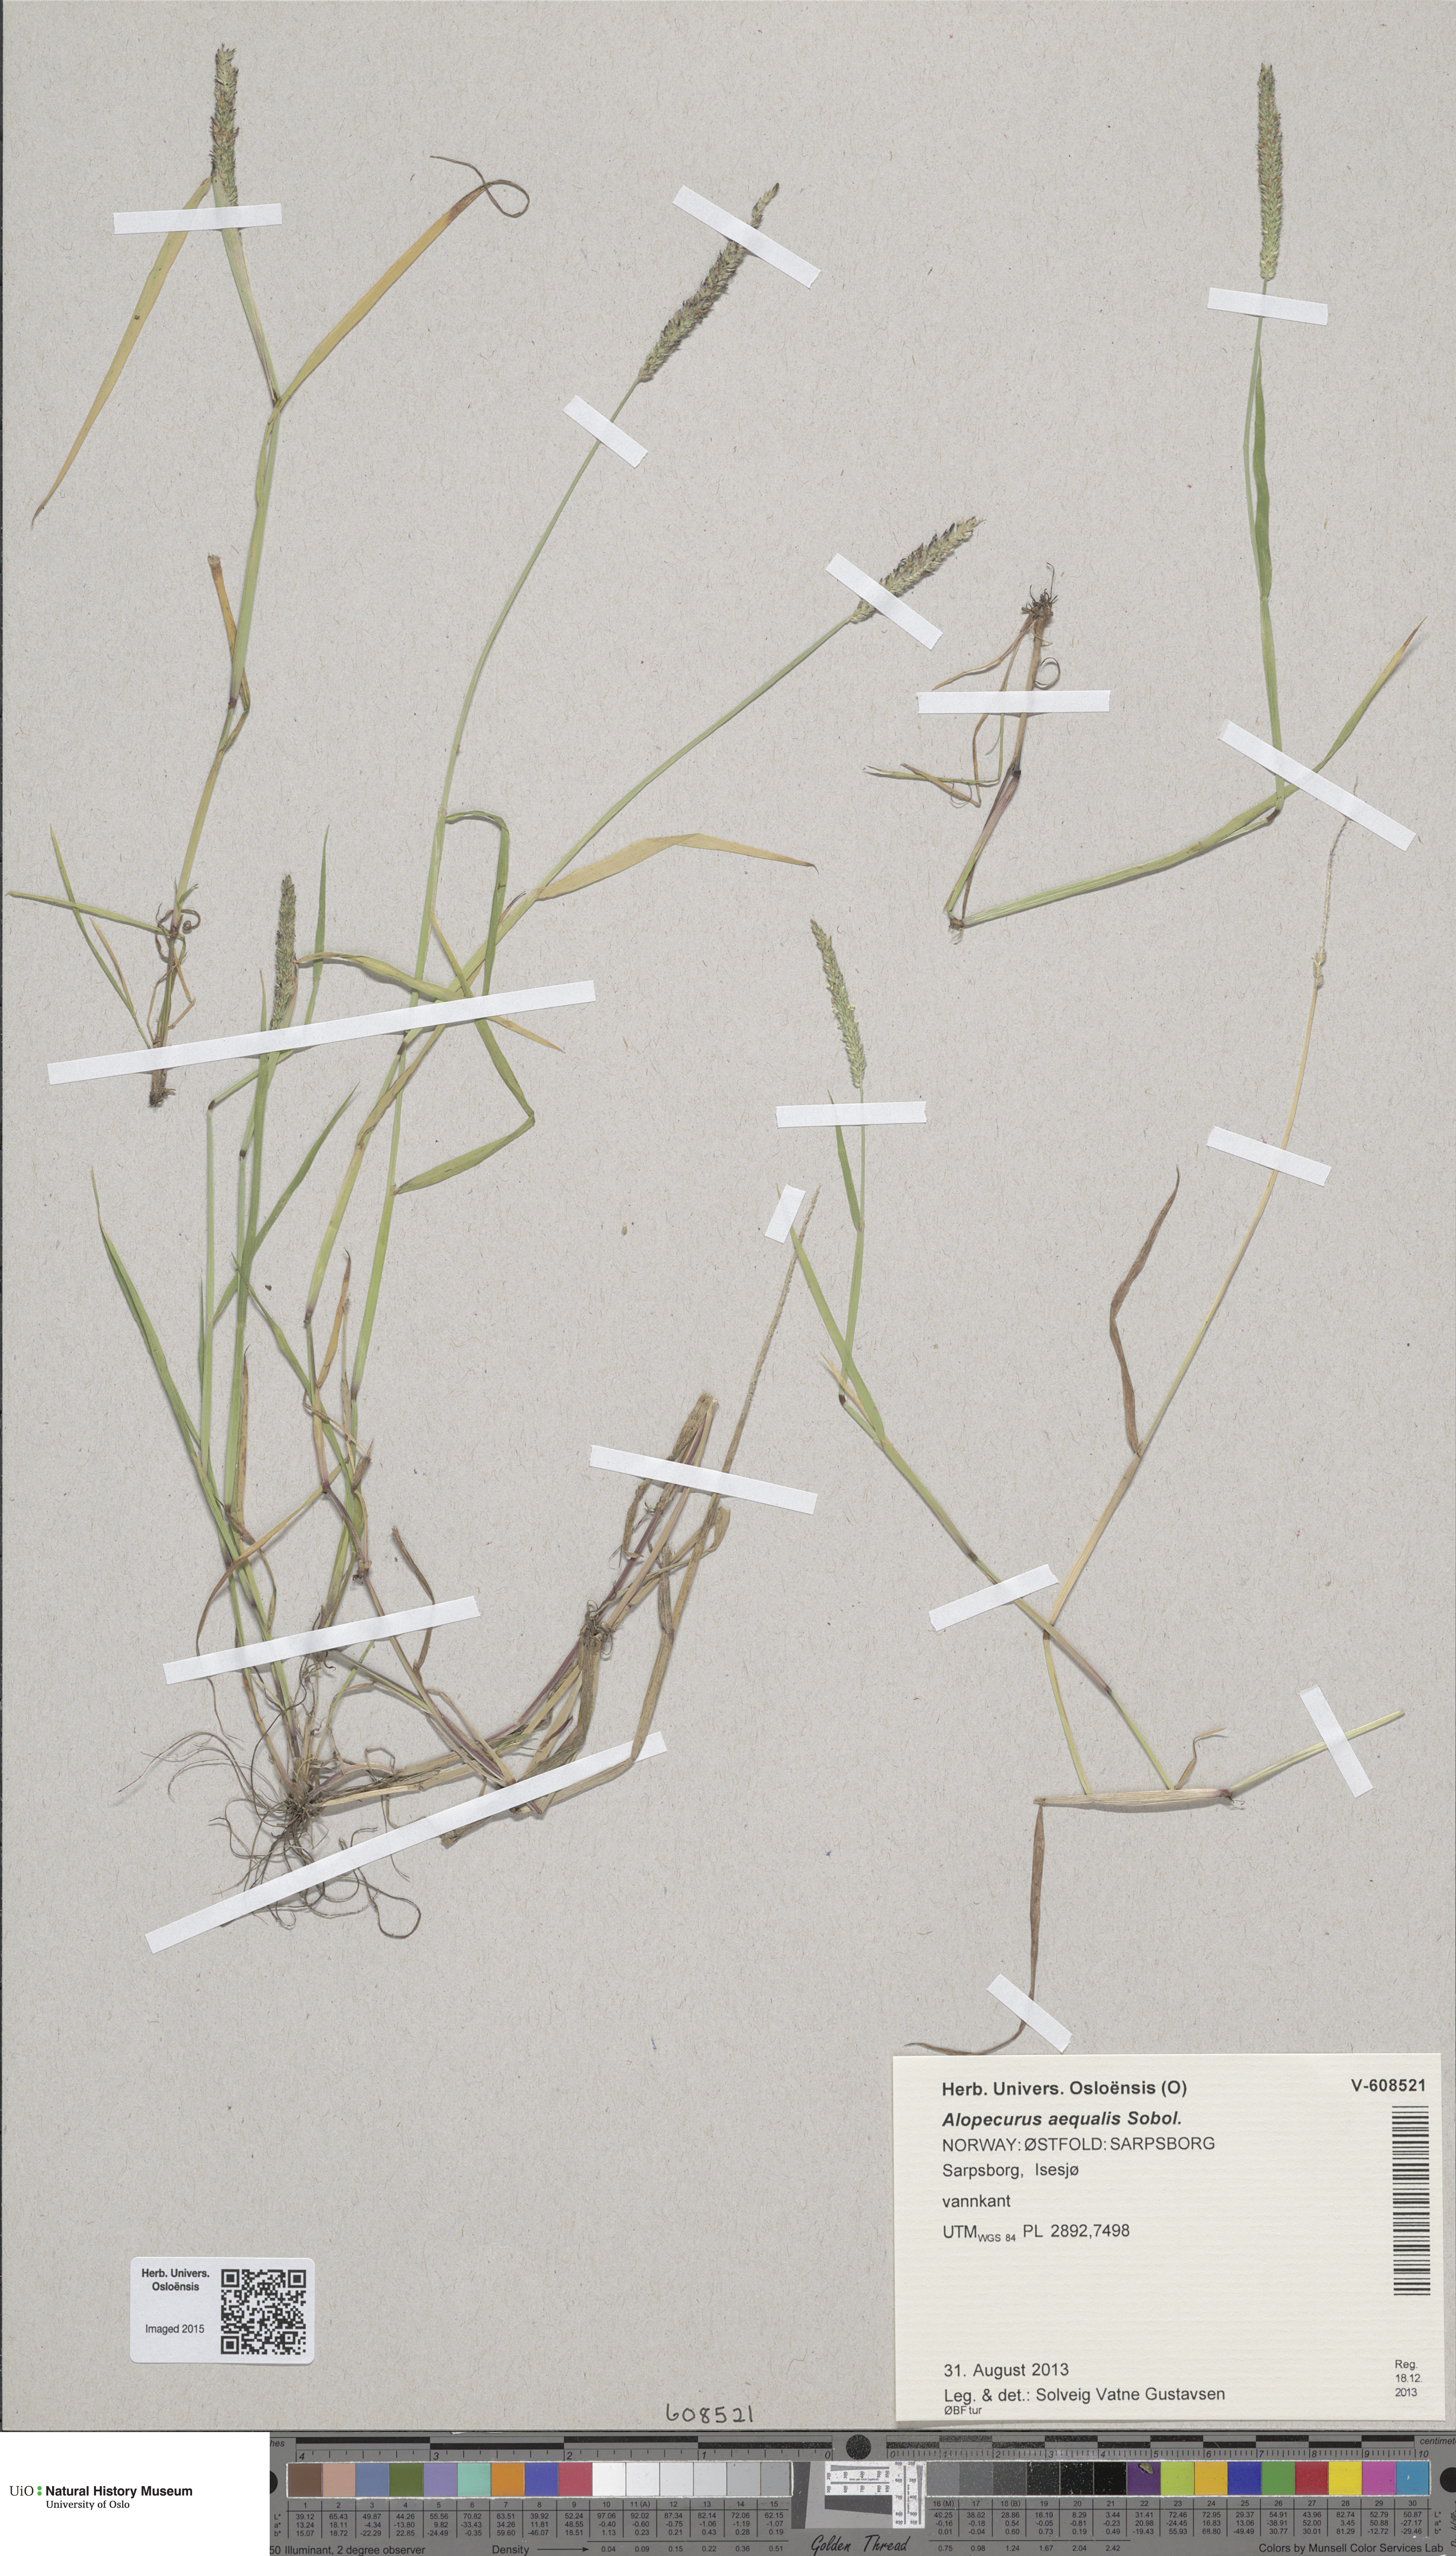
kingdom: Plantae
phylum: Tracheophyta
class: Liliopsida
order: Poales
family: Poaceae
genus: Alopecurus
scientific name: Alopecurus aequalis
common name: Orange foxtail
